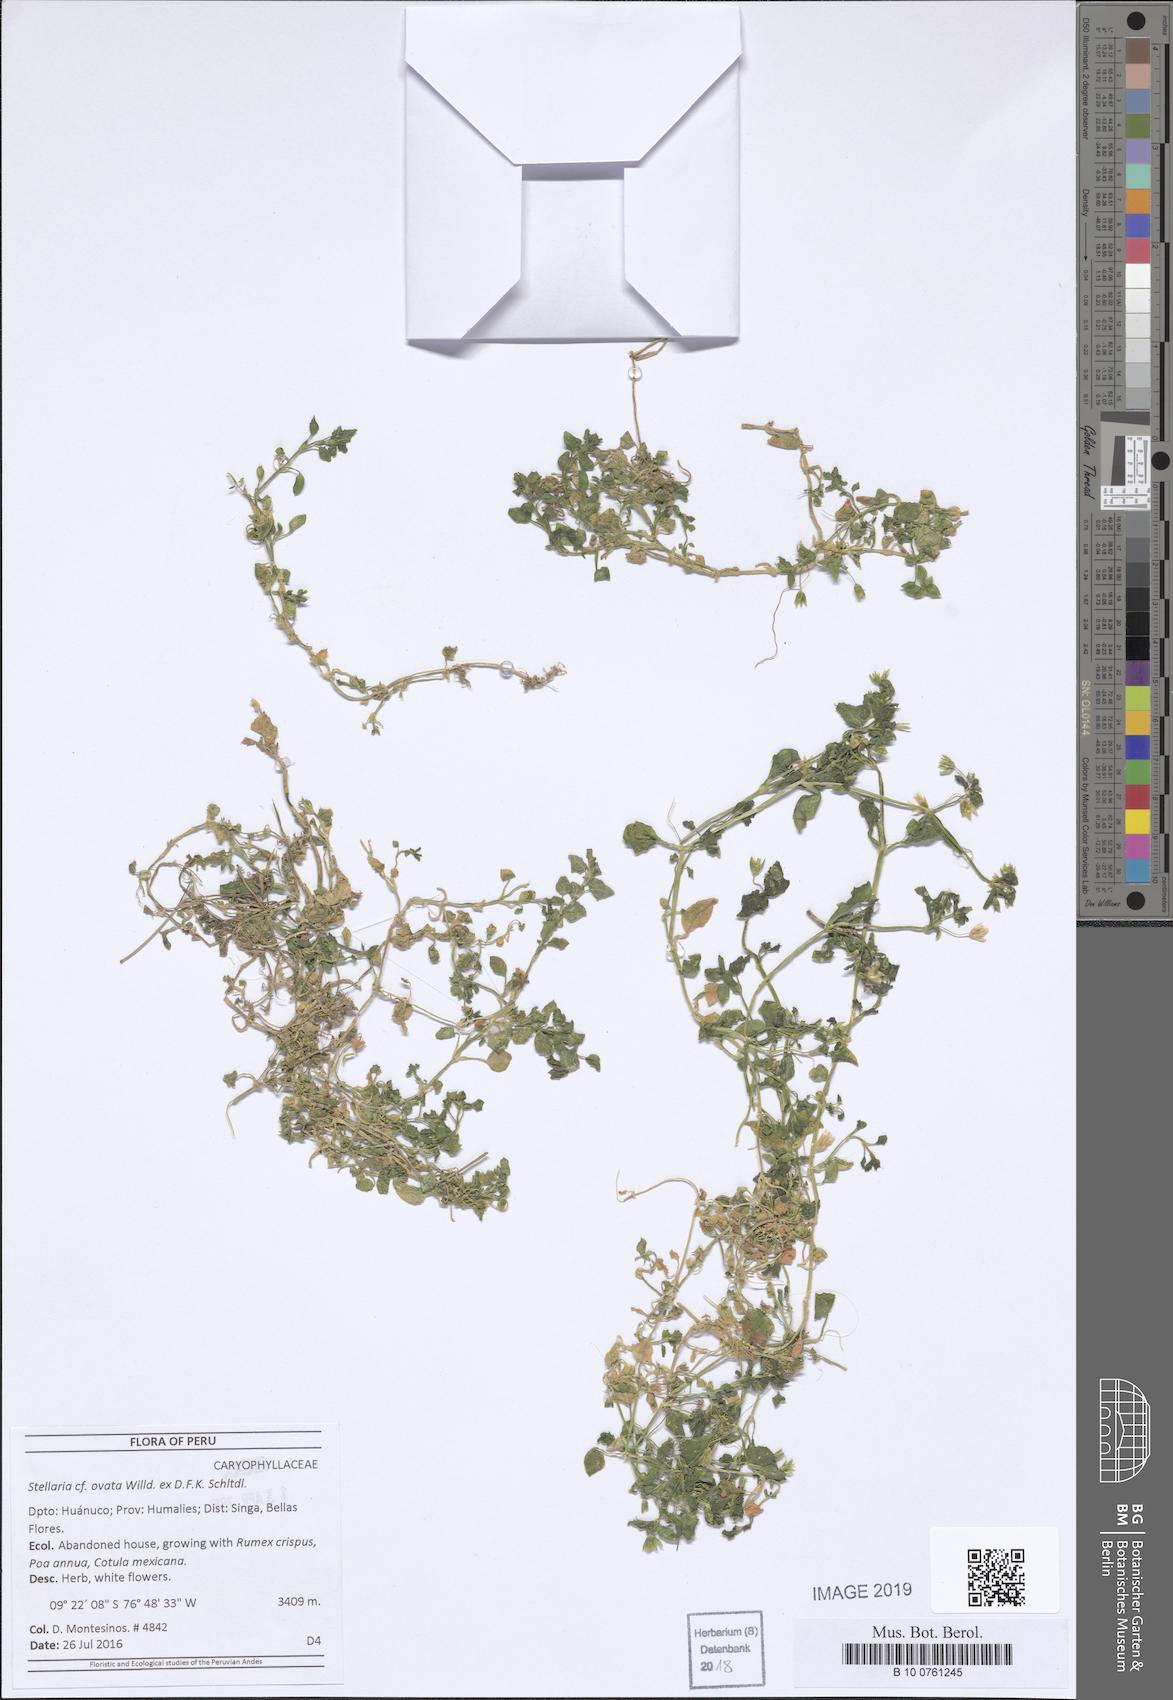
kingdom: Plantae
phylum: Tracheophyta
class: Magnoliopsida
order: Caryophyllales
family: Caryophyllaceae
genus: Stellaria
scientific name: Stellaria ovata
